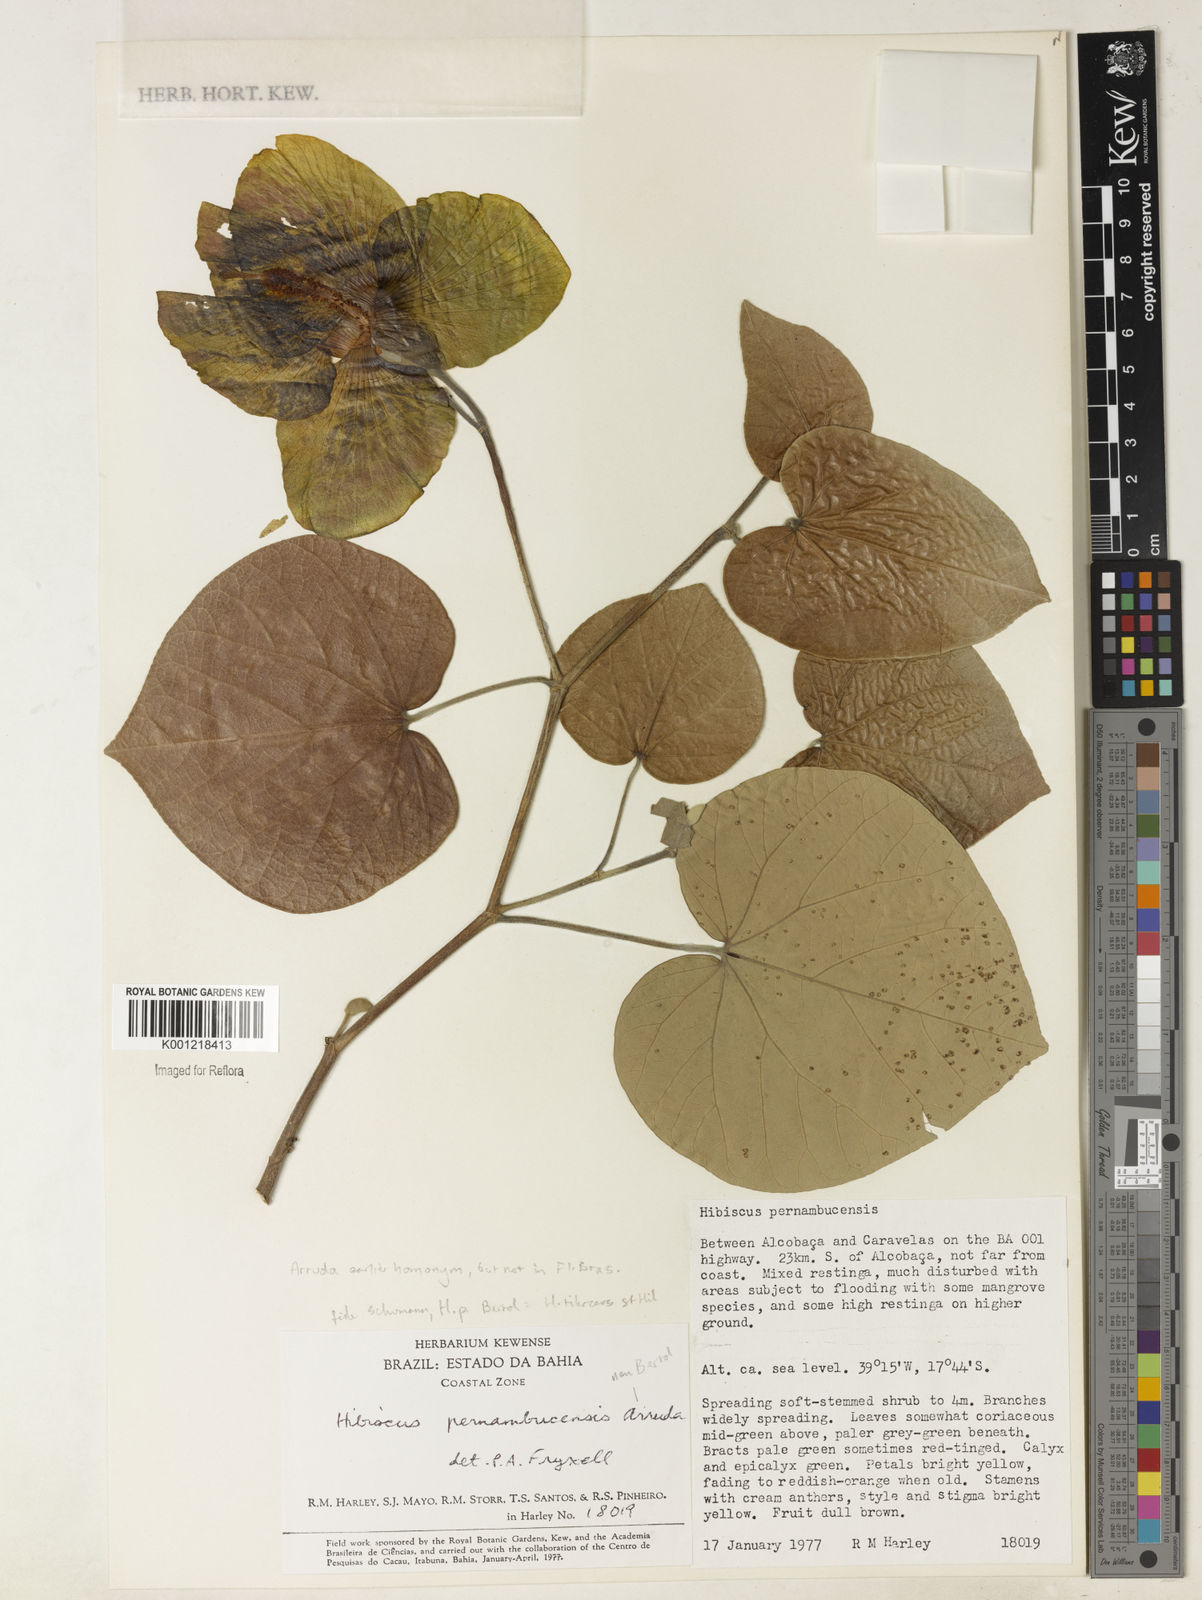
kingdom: Plantae
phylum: Tracheophyta
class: Magnoliopsida
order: Malvales
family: Malvaceae
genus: Talipariti
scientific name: Talipariti pernambucense
